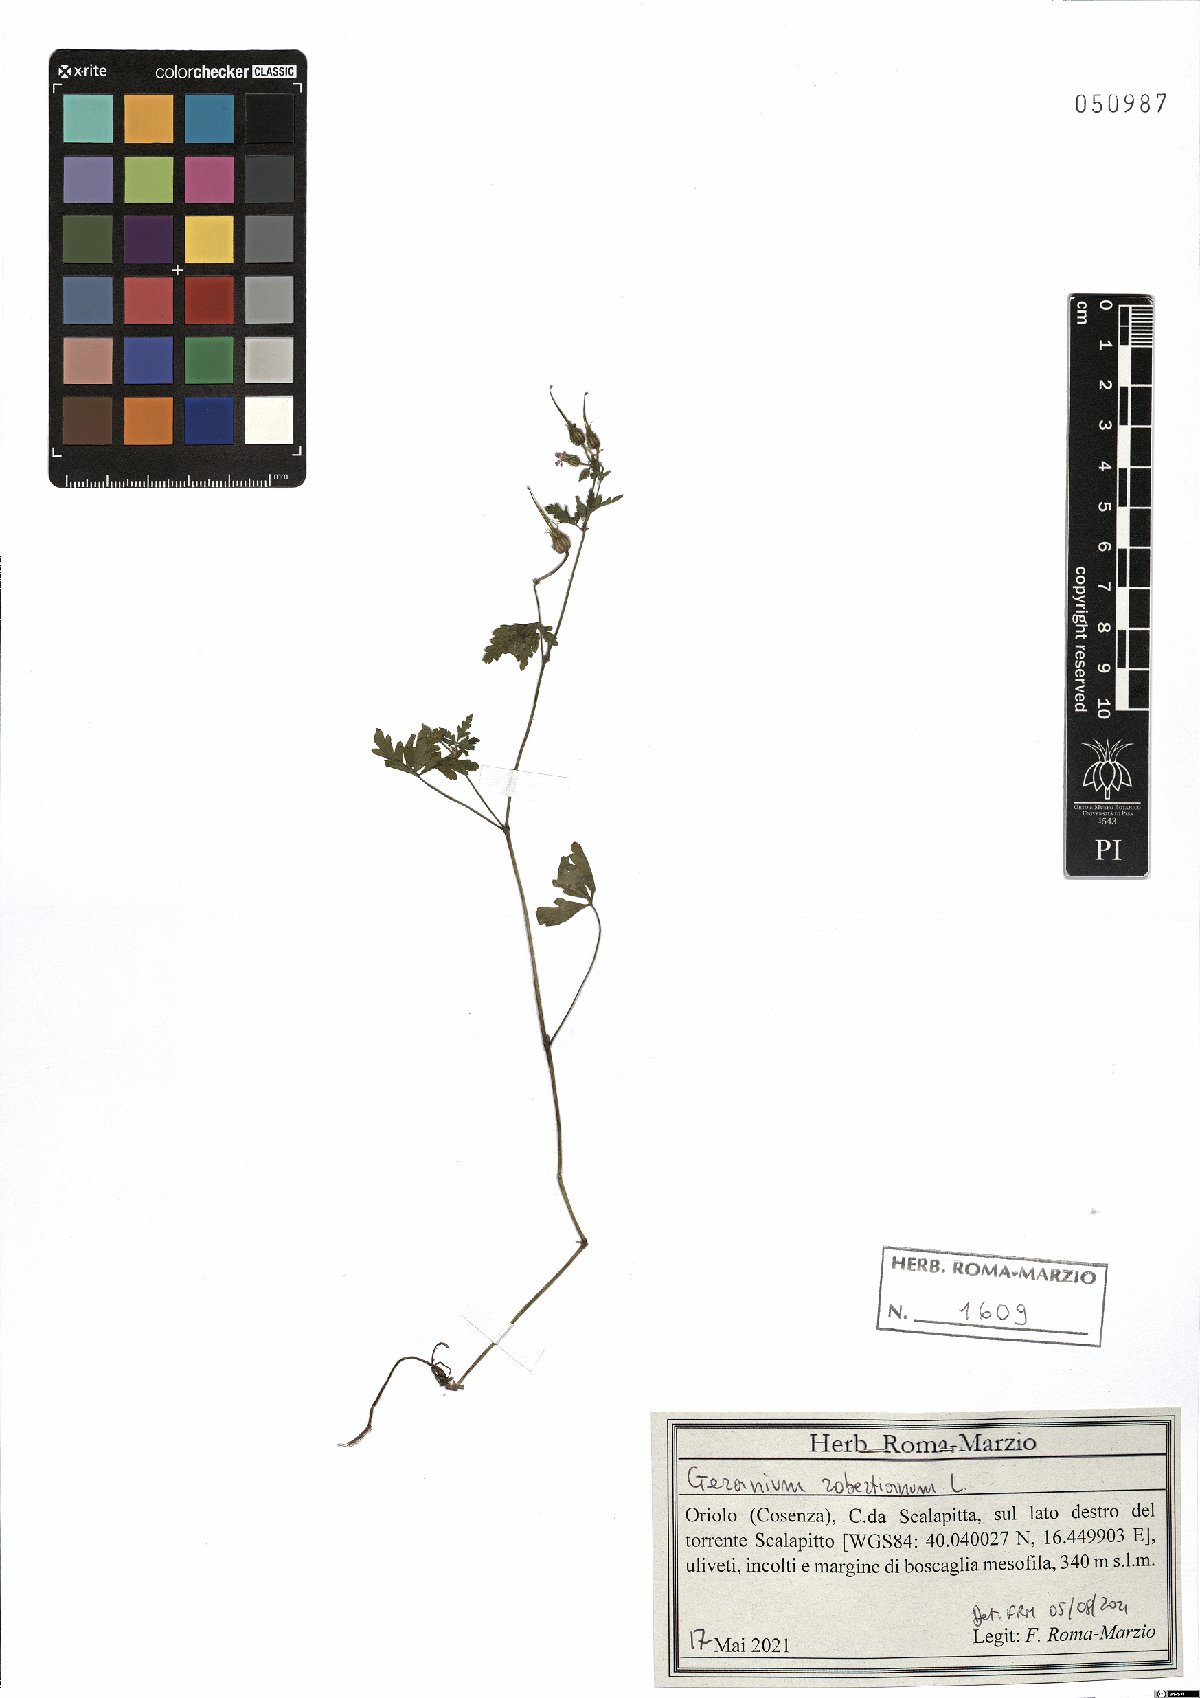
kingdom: Plantae
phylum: Tracheophyta
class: Magnoliopsida
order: Geraniales
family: Geraniaceae
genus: Geranium
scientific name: Geranium robertianum
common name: Herb-robert
